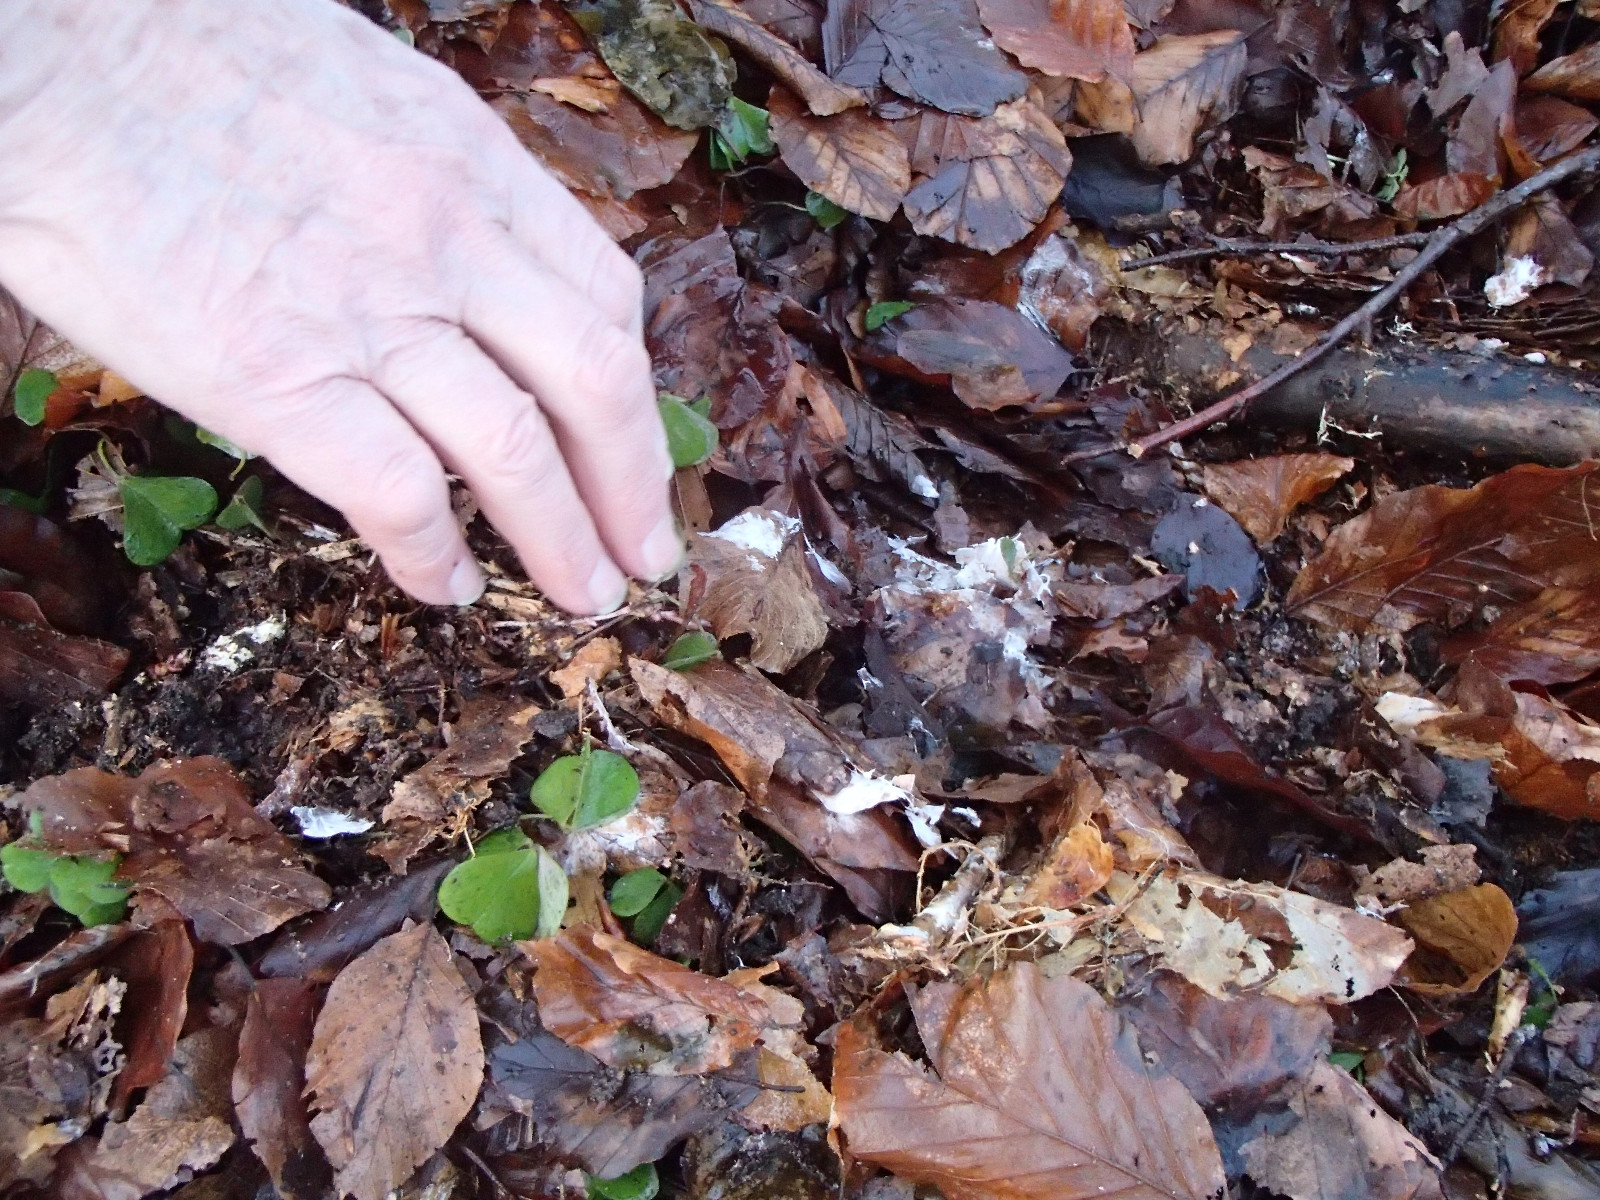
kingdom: Fungi
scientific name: Fungi
